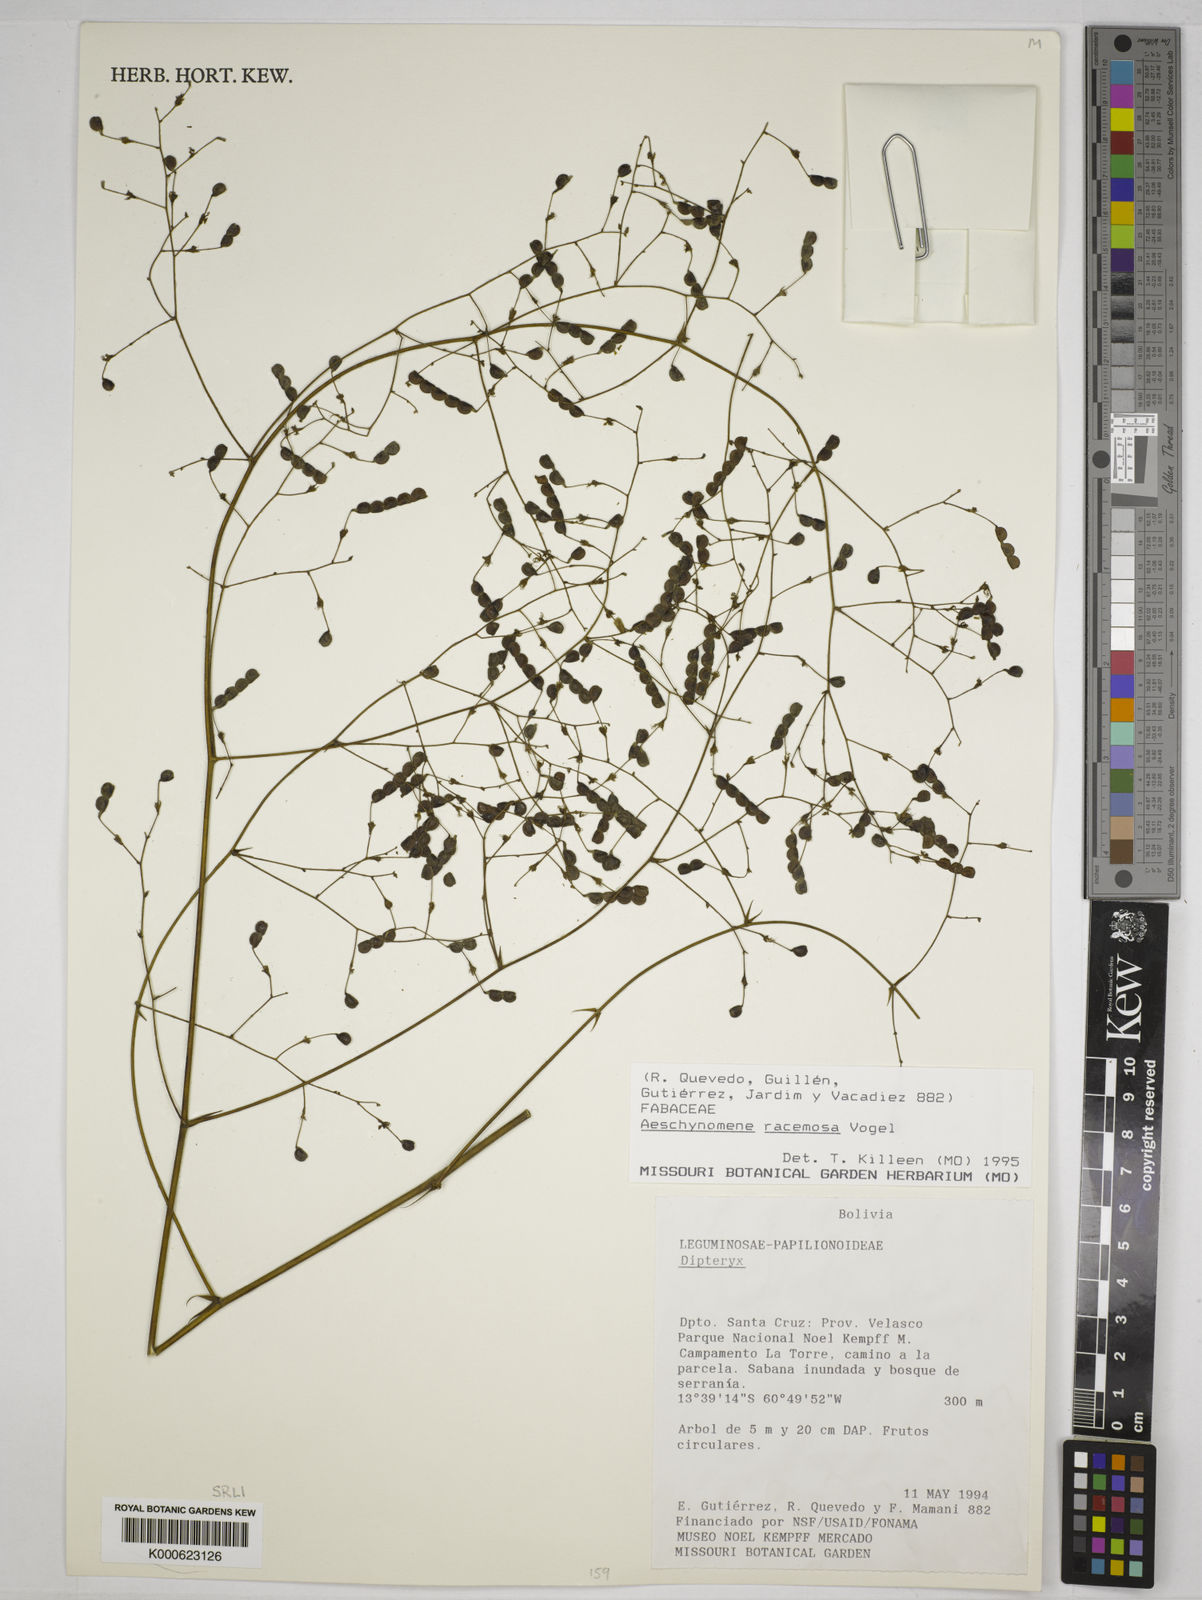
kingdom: Plantae
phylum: Tracheophyta
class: Magnoliopsida
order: Fabales
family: Fabaceae
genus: Ctenodon
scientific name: Ctenodon racemosus
